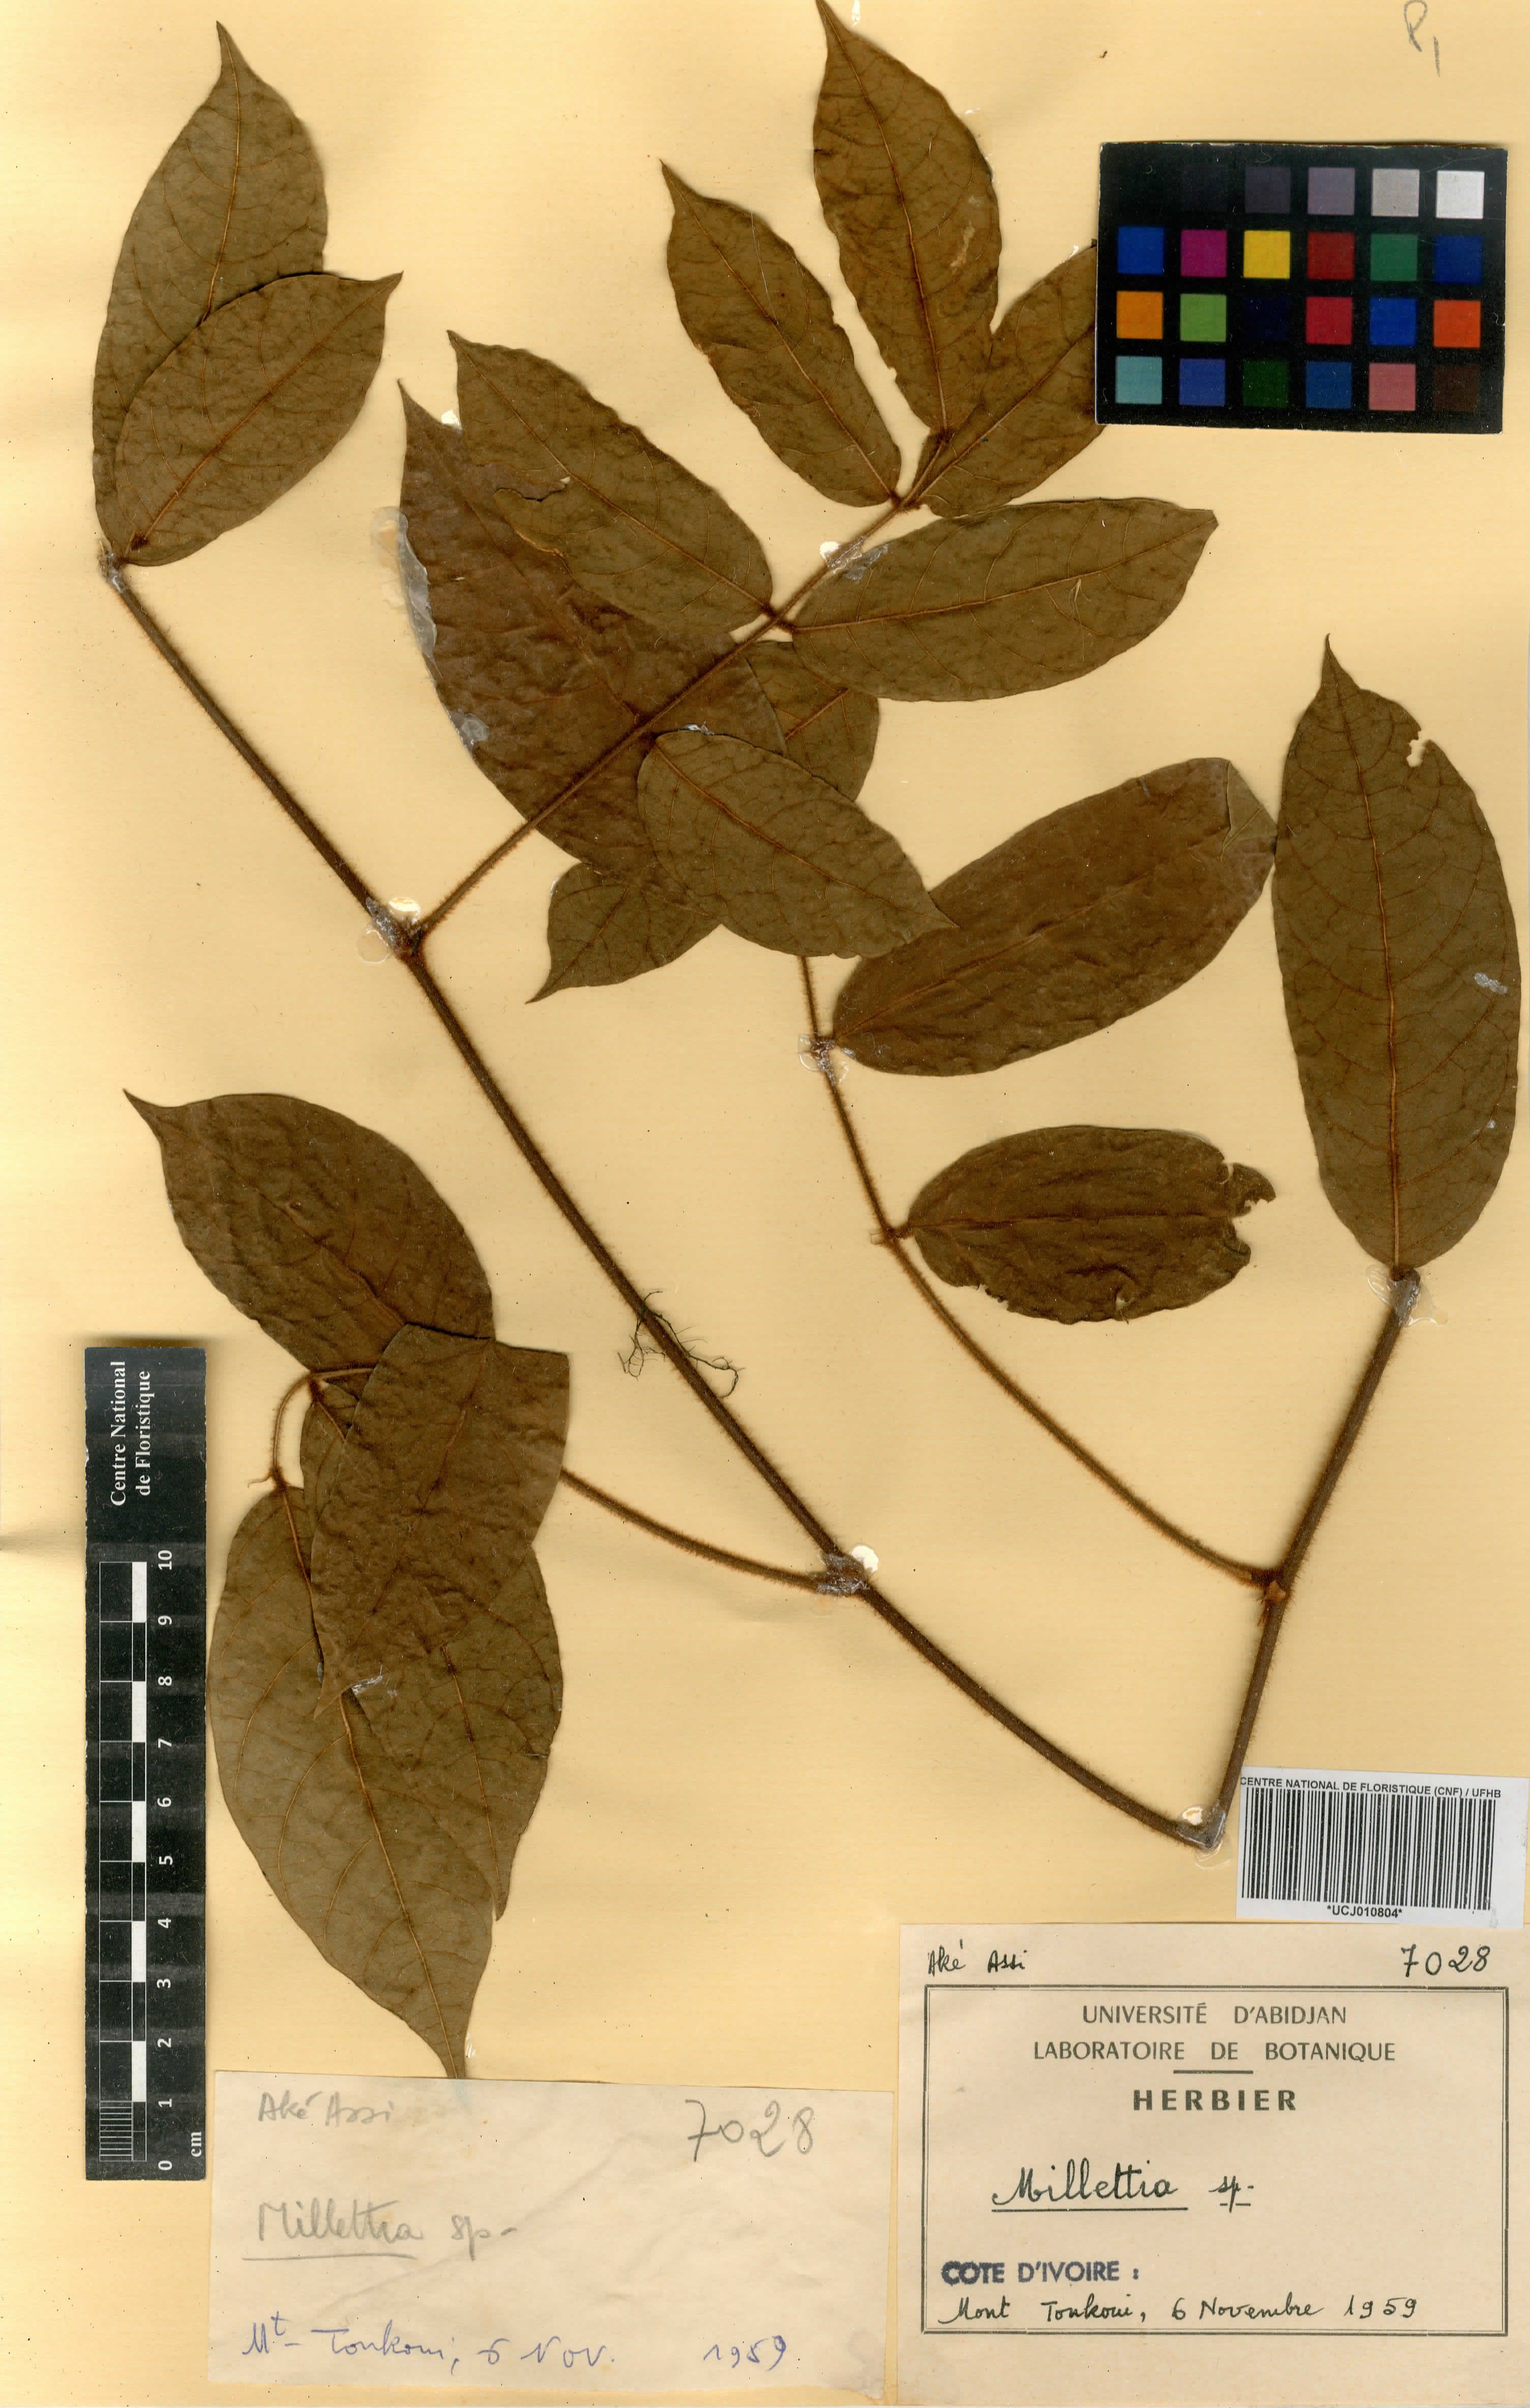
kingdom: Plantae
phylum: Tracheophyta
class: Magnoliopsida
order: Fabales
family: Fabaceae
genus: Millettia
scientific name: Millettia
